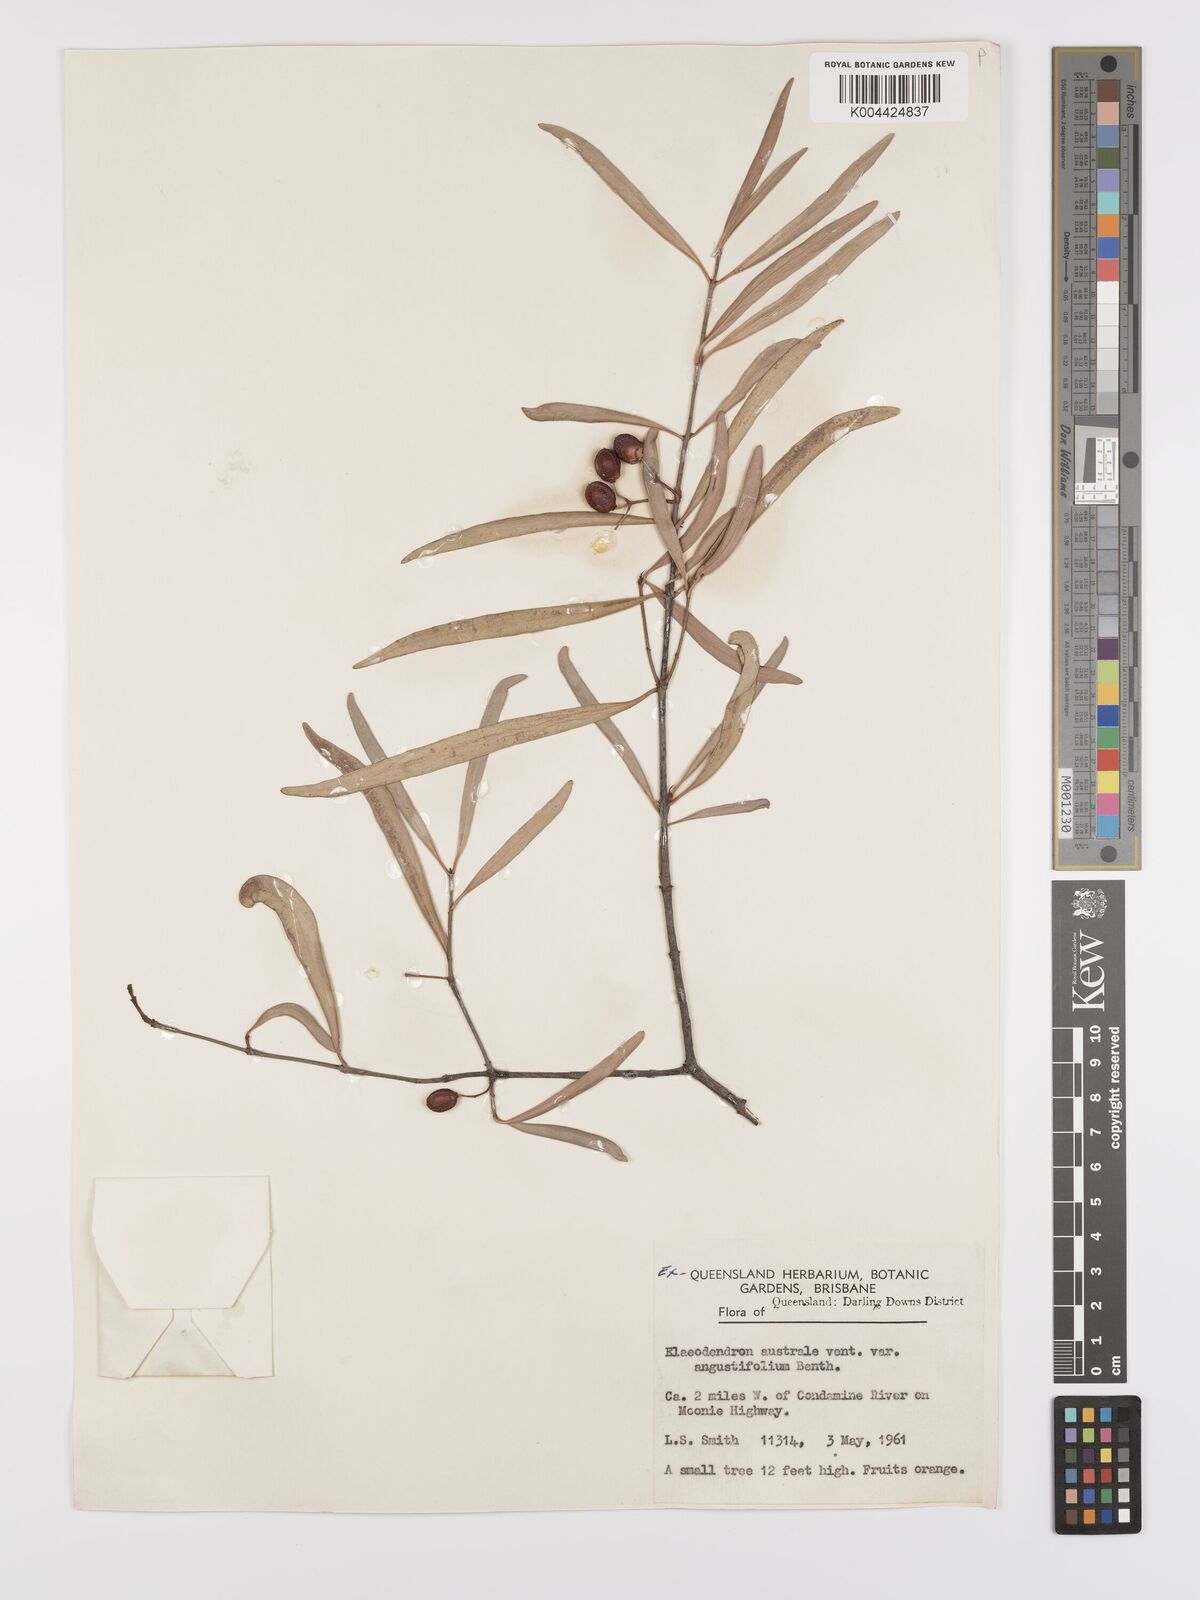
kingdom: Plantae
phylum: Tracheophyta
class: Magnoliopsida
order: Celastrales
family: Celastraceae
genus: Elaeodendron
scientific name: Elaeodendron australe
